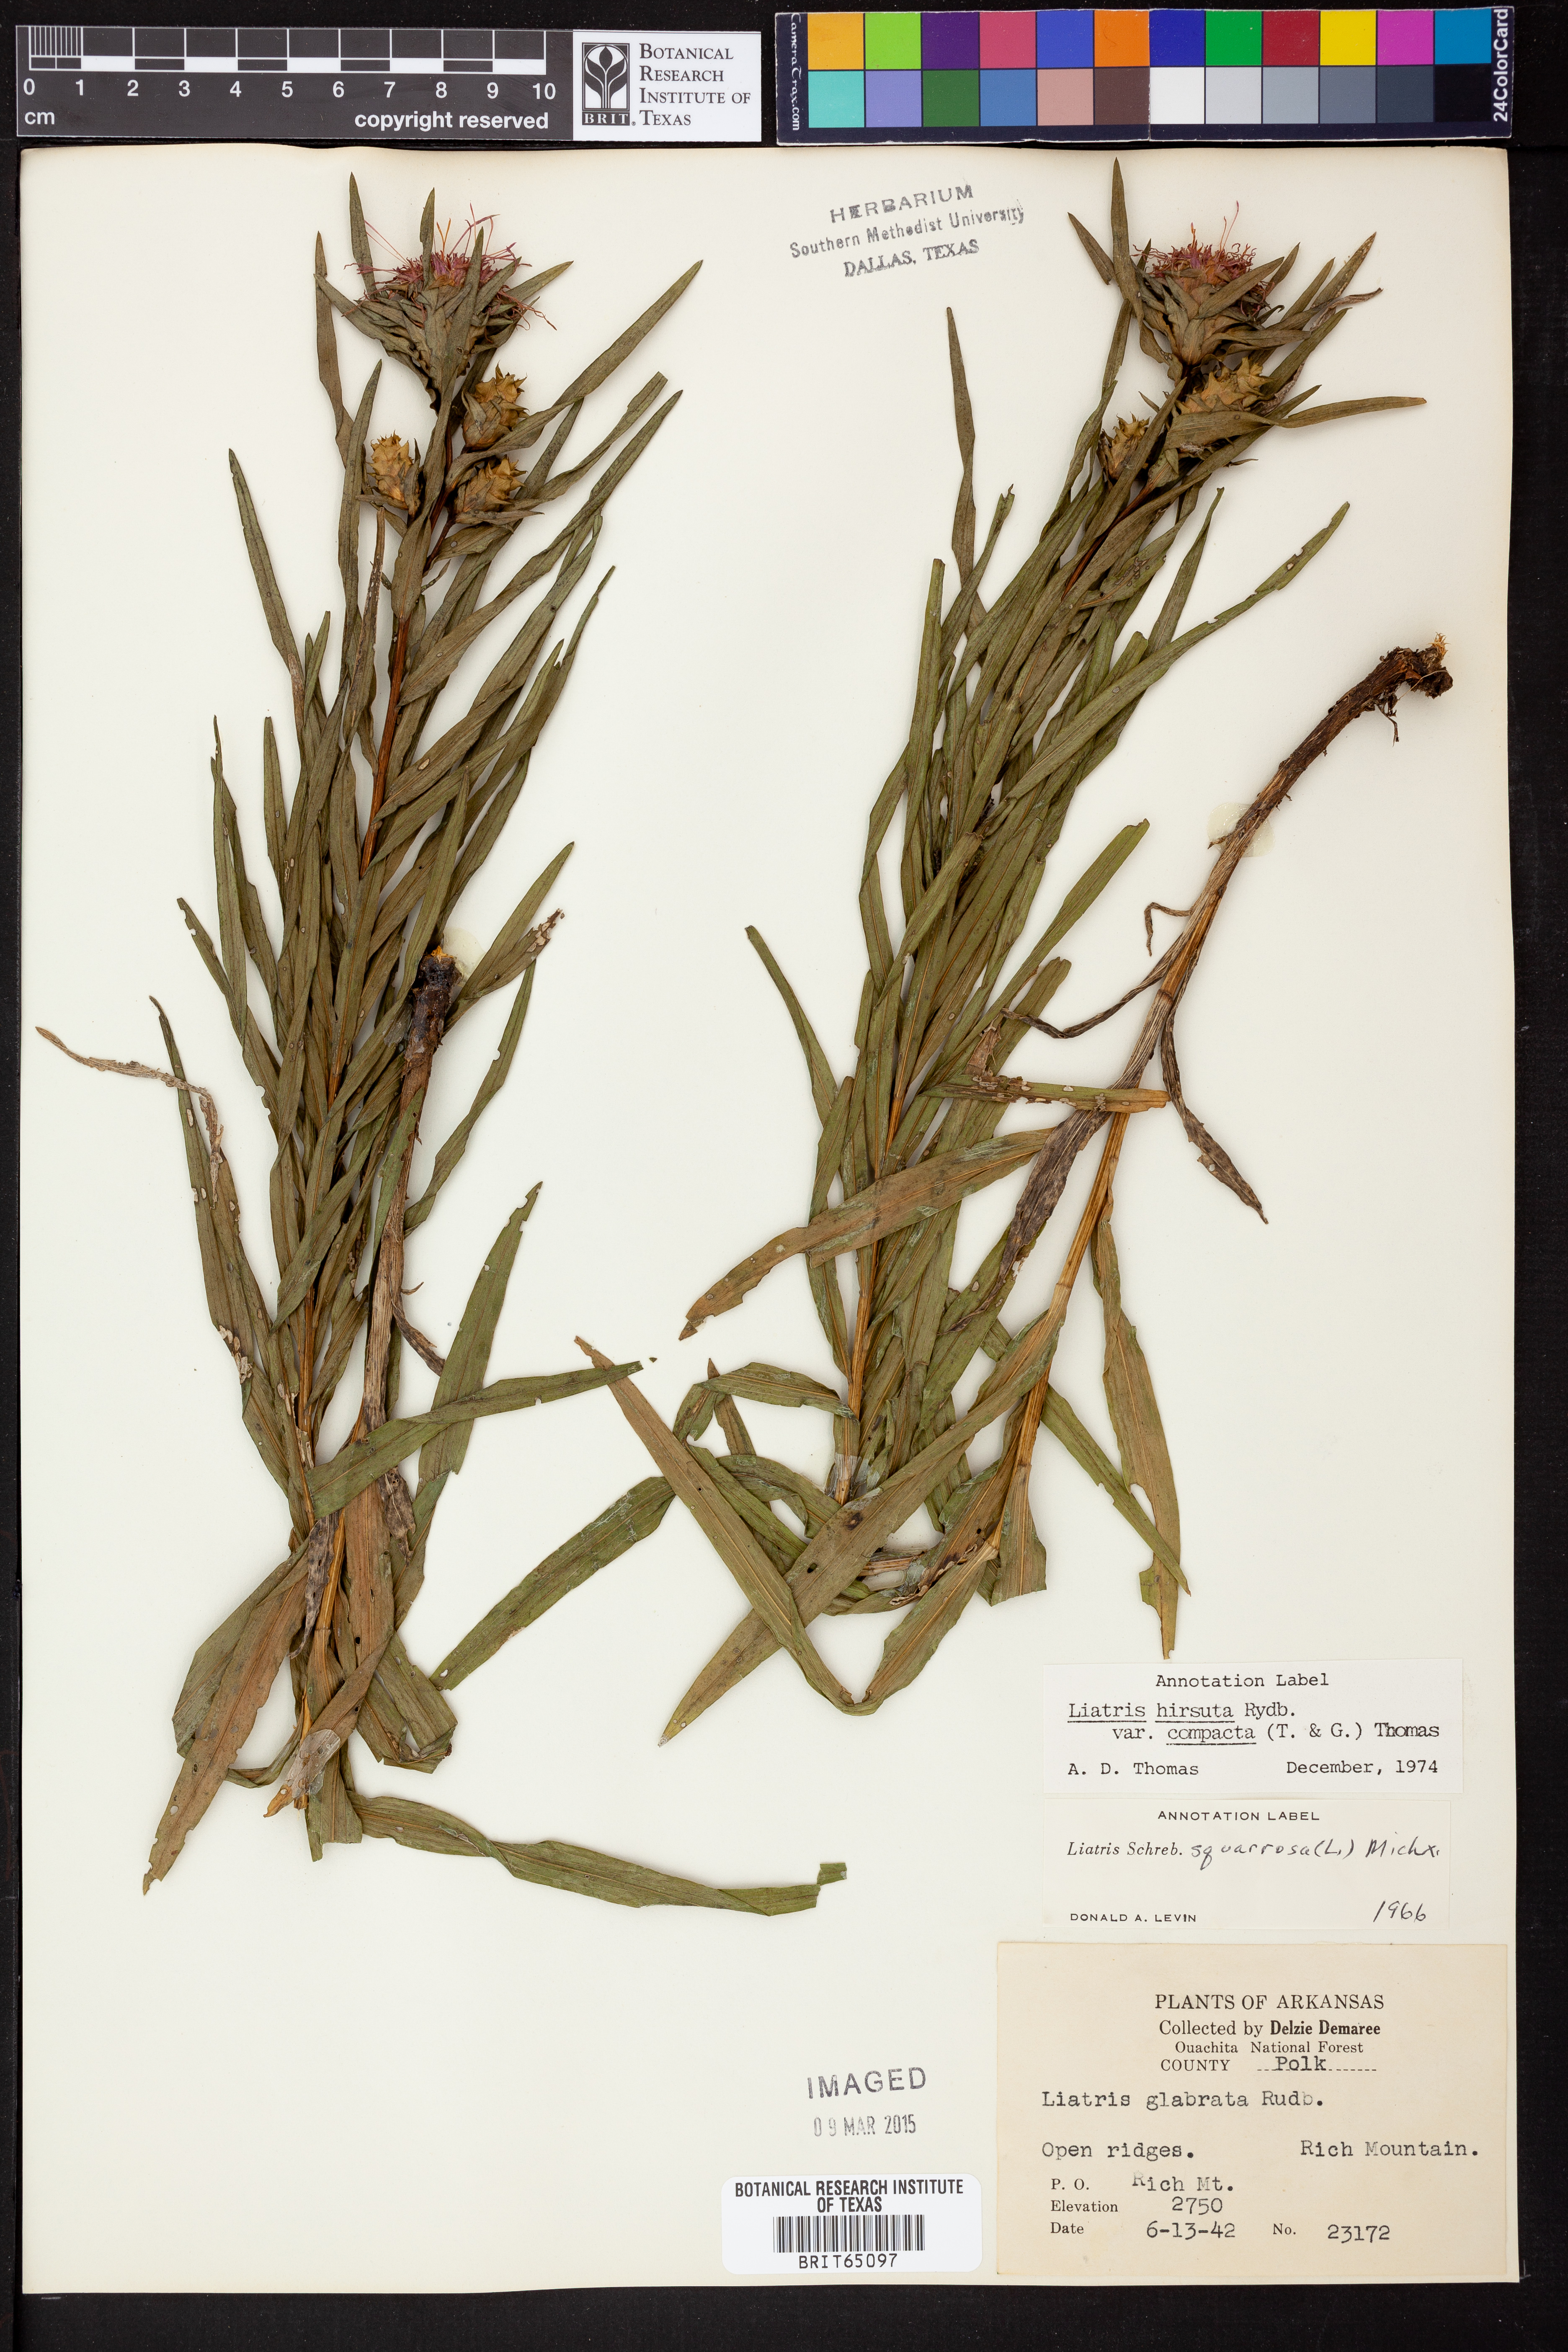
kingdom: Plantae
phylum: Tracheophyta
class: Magnoliopsida
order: Asterales
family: Asteraceae
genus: Liatris
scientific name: Liatris compacta
